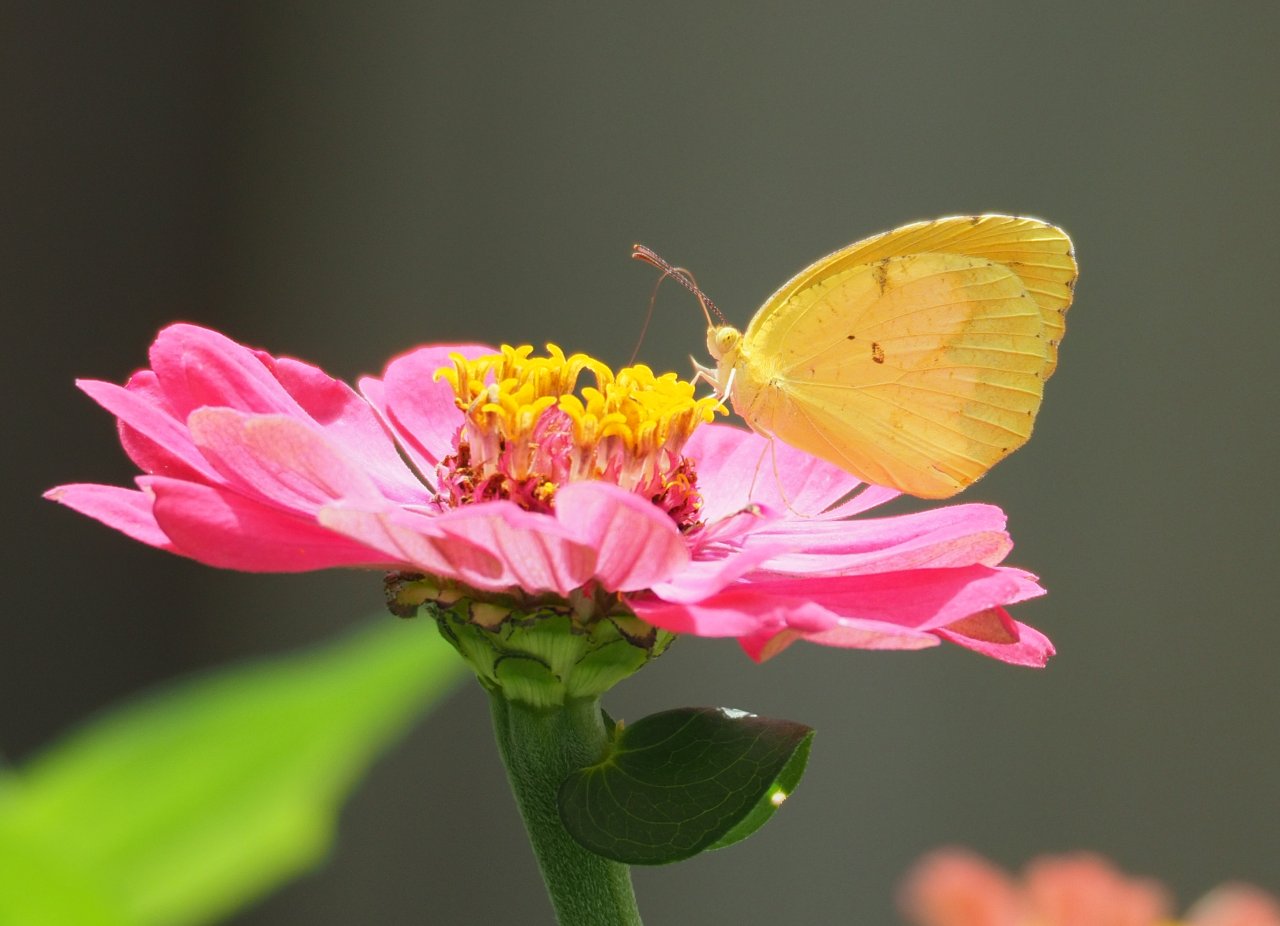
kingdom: Animalia
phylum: Arthropoda
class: Insecta
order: Lepidoptera
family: Pieridae
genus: Abaeis
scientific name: Abaeis nicippe
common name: Sleepy Orange
